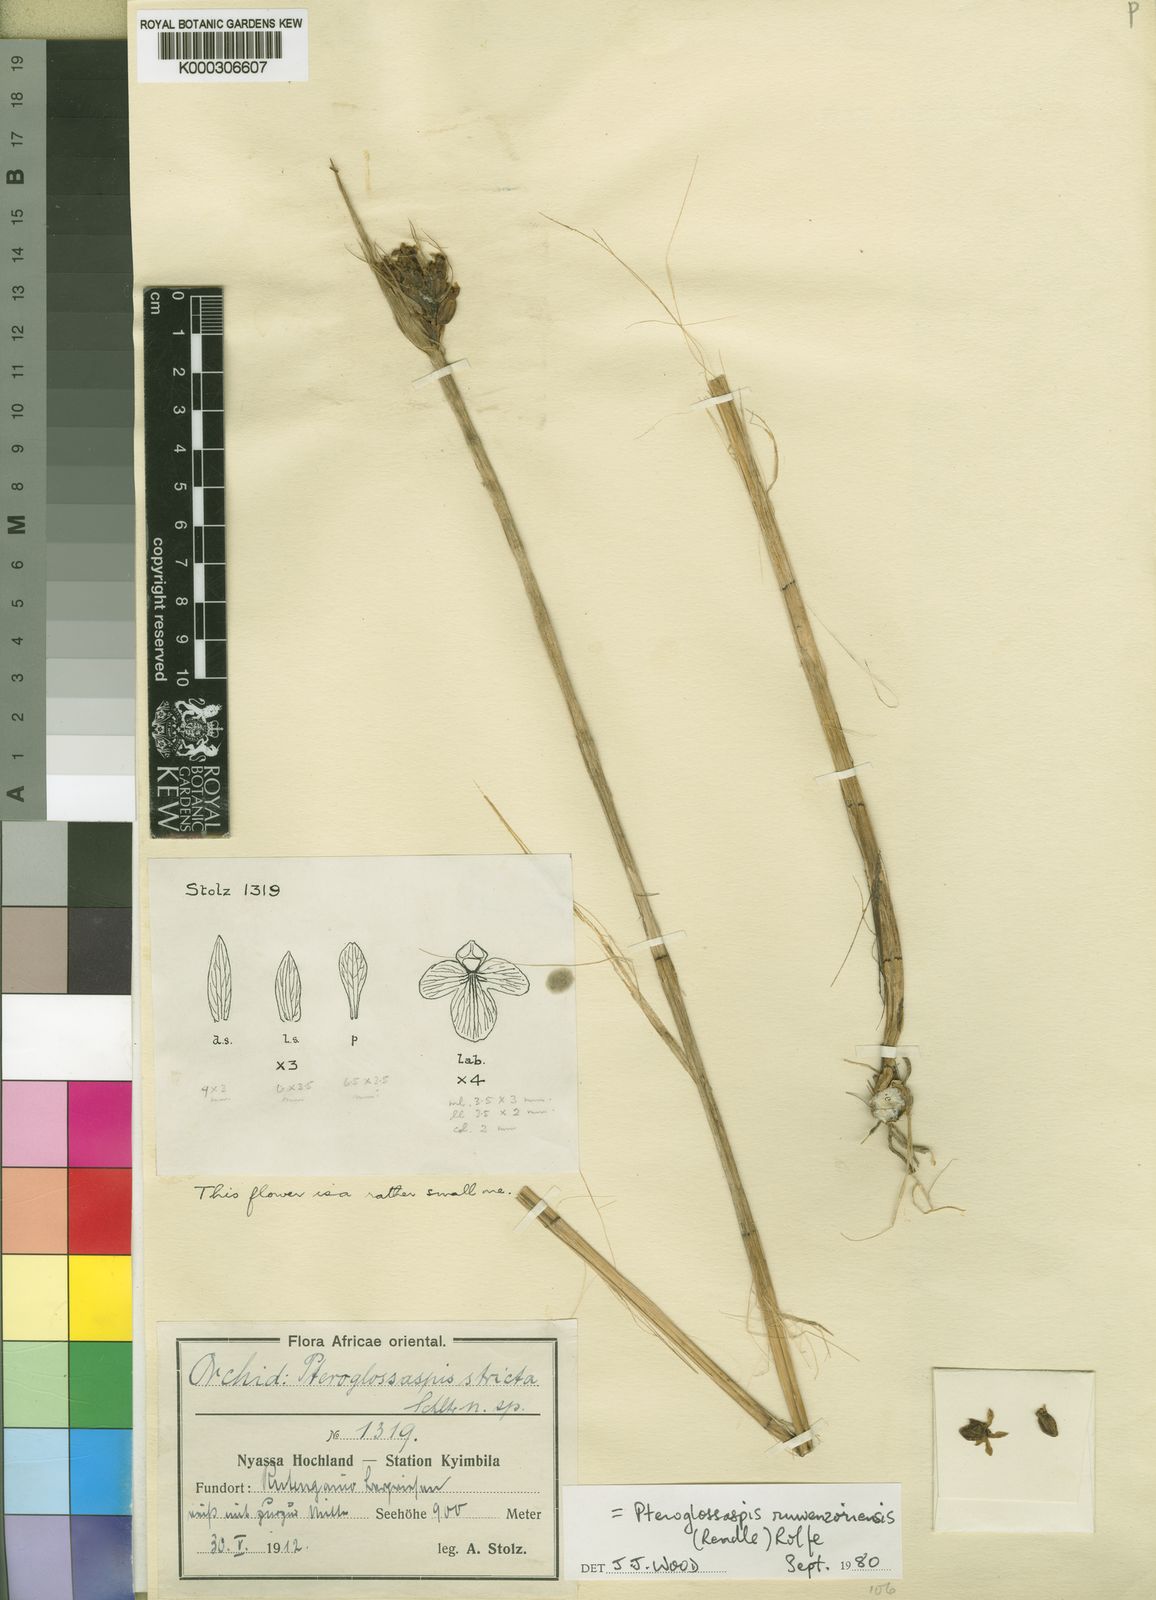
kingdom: Plantae
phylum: Tracheophyta
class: Liliopsida
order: Asparagales
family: Orchidaceae
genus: Eulophia
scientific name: Eulophia ruwenzoriensis
